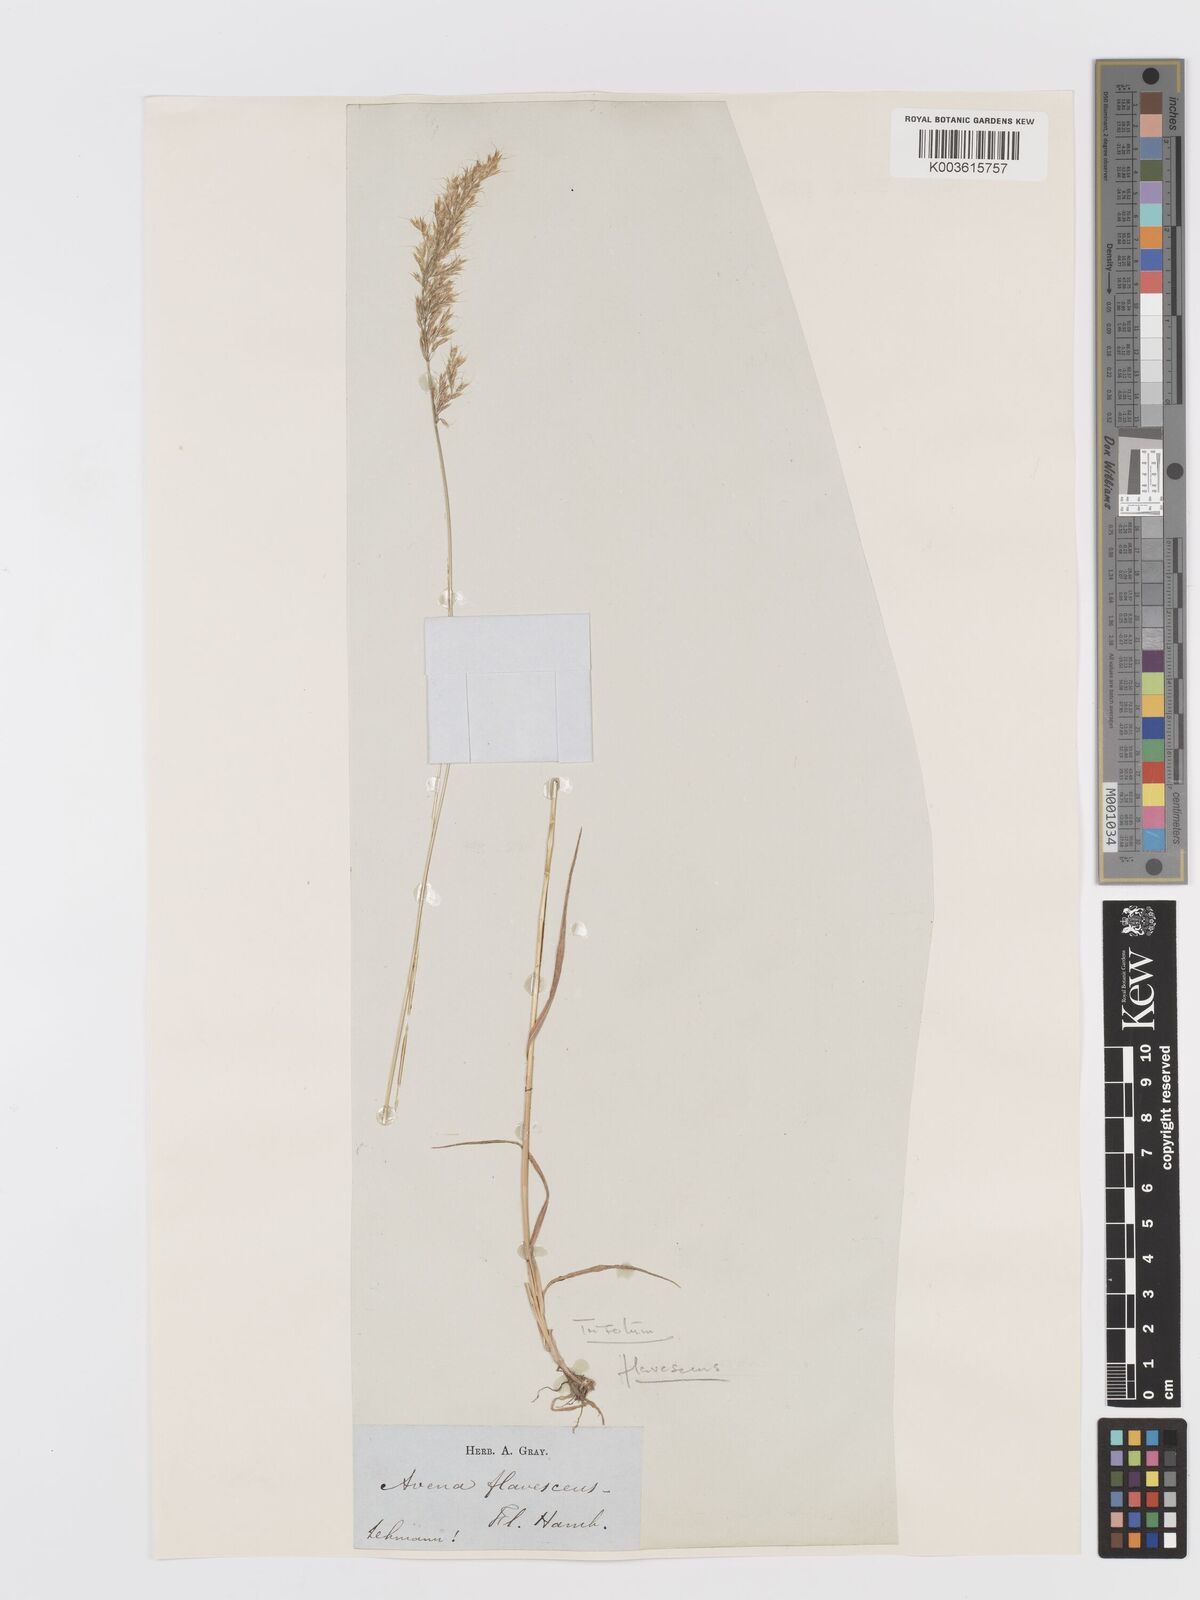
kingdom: Plantae
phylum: Tracheophyta
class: Liliopsida
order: Poales
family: Poaceae
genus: Trisetum
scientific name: Trisetum flavescens
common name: Yellow oat-grass
